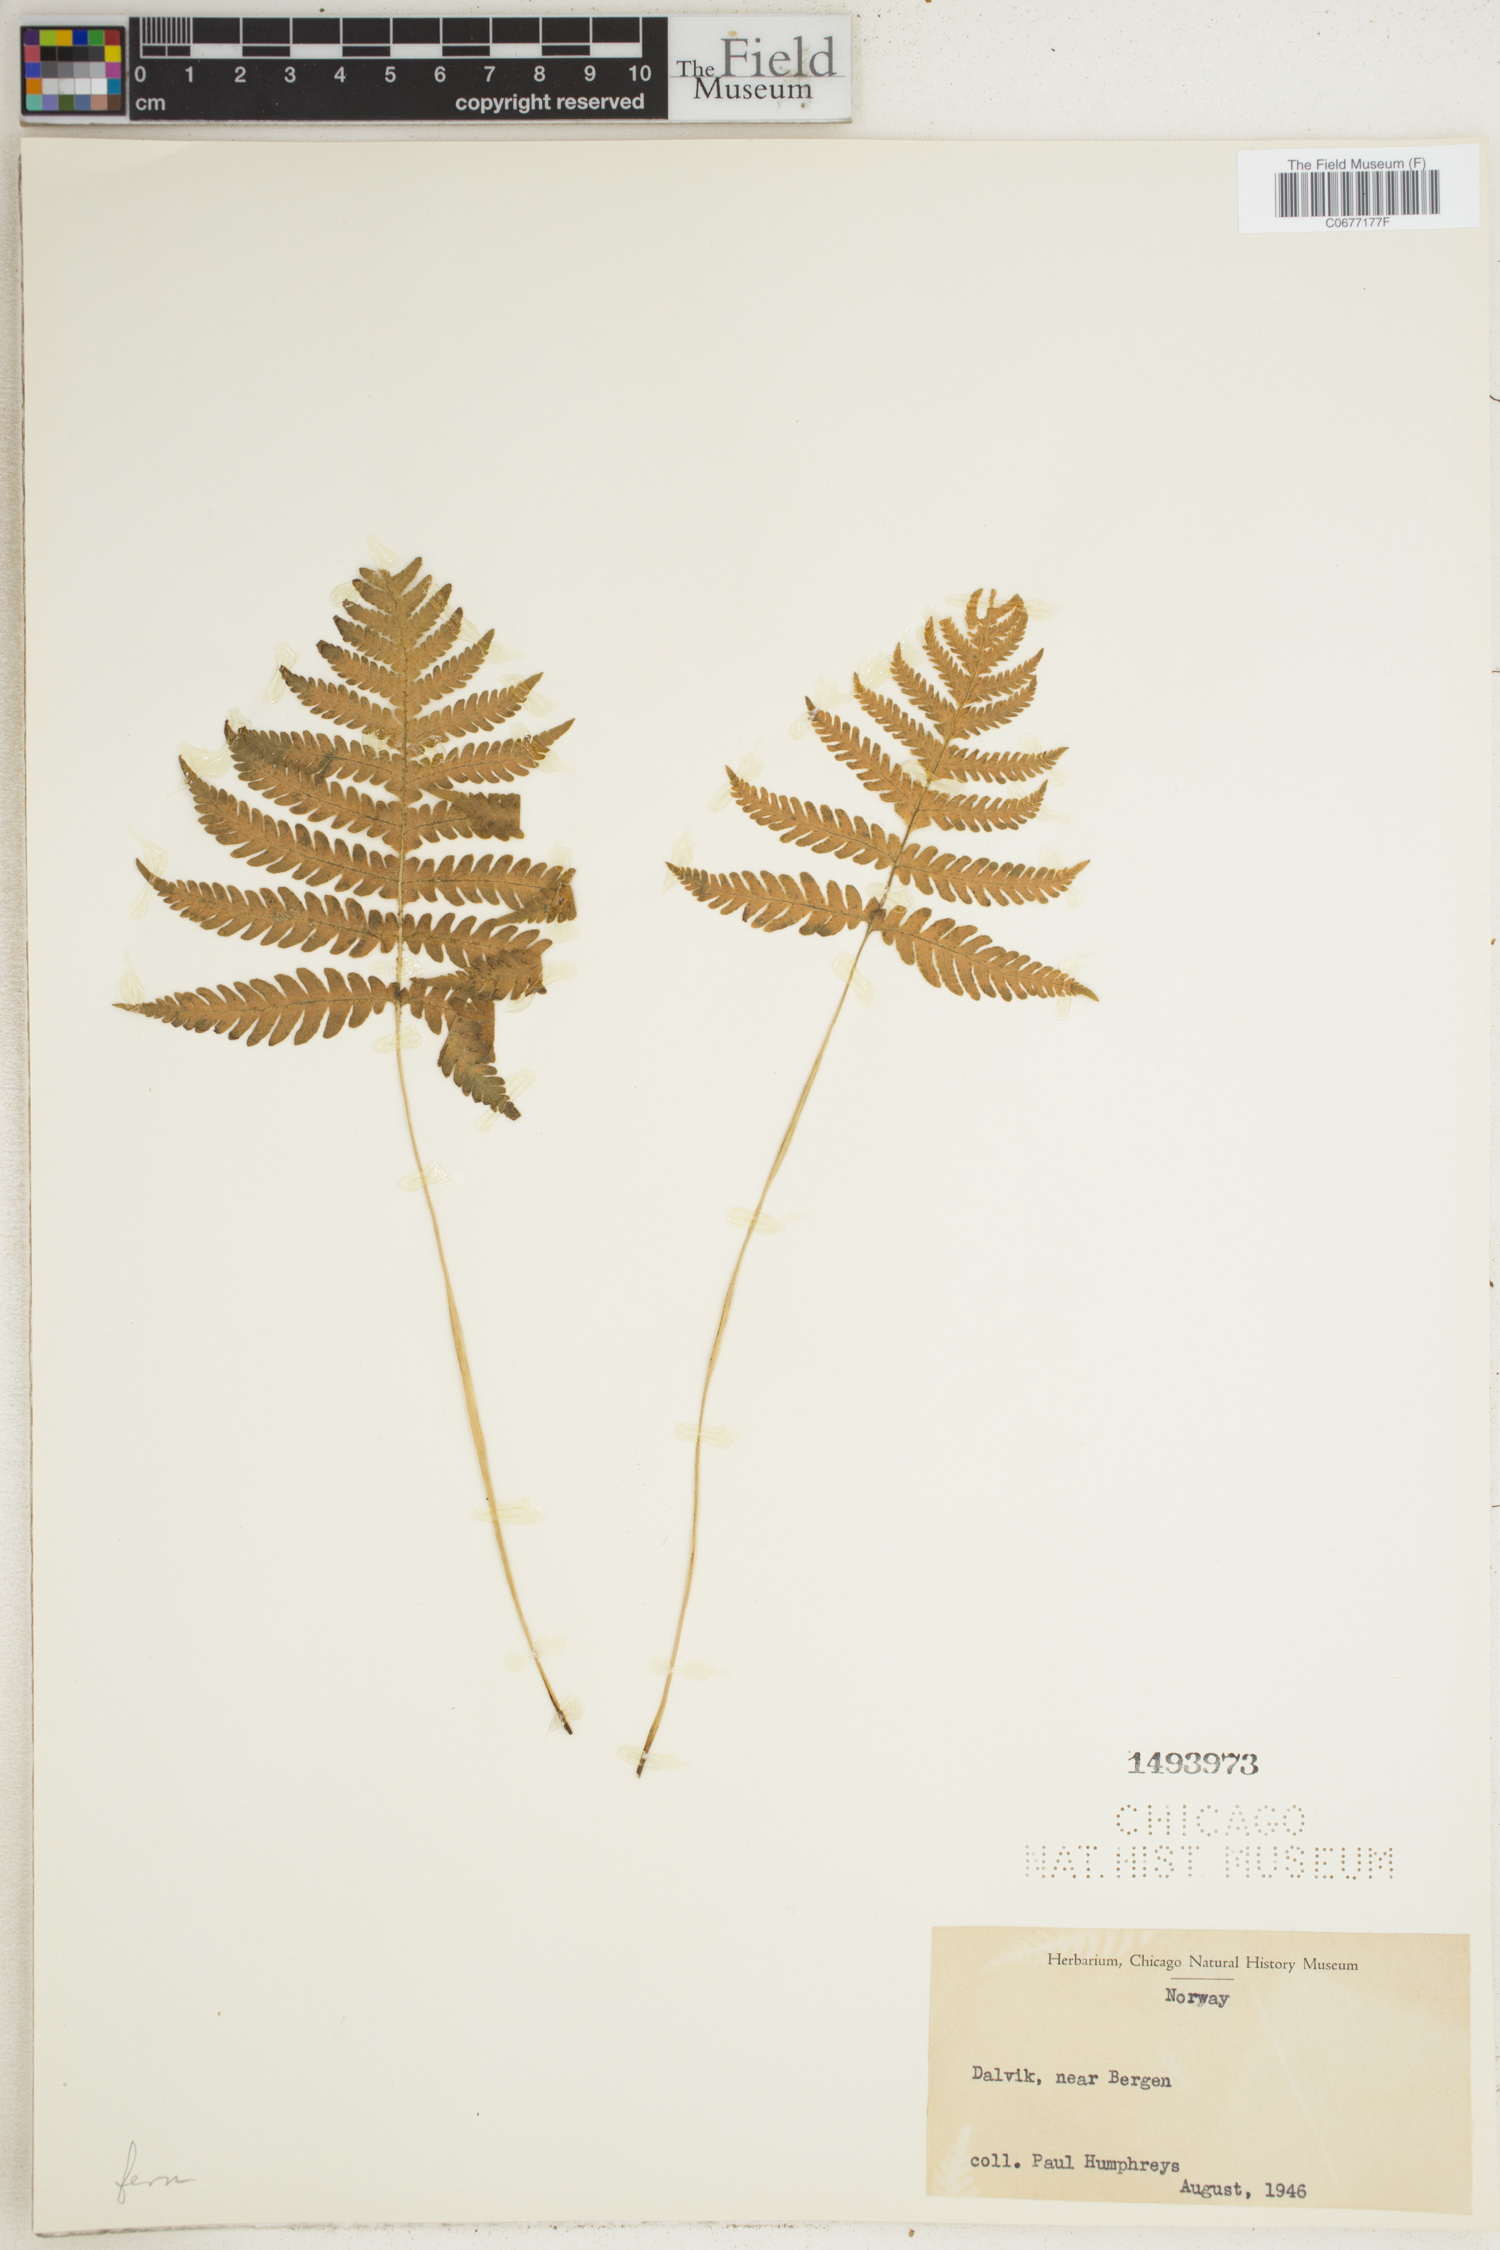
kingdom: Plantae
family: Pteridophyta
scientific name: Pteridophyta
